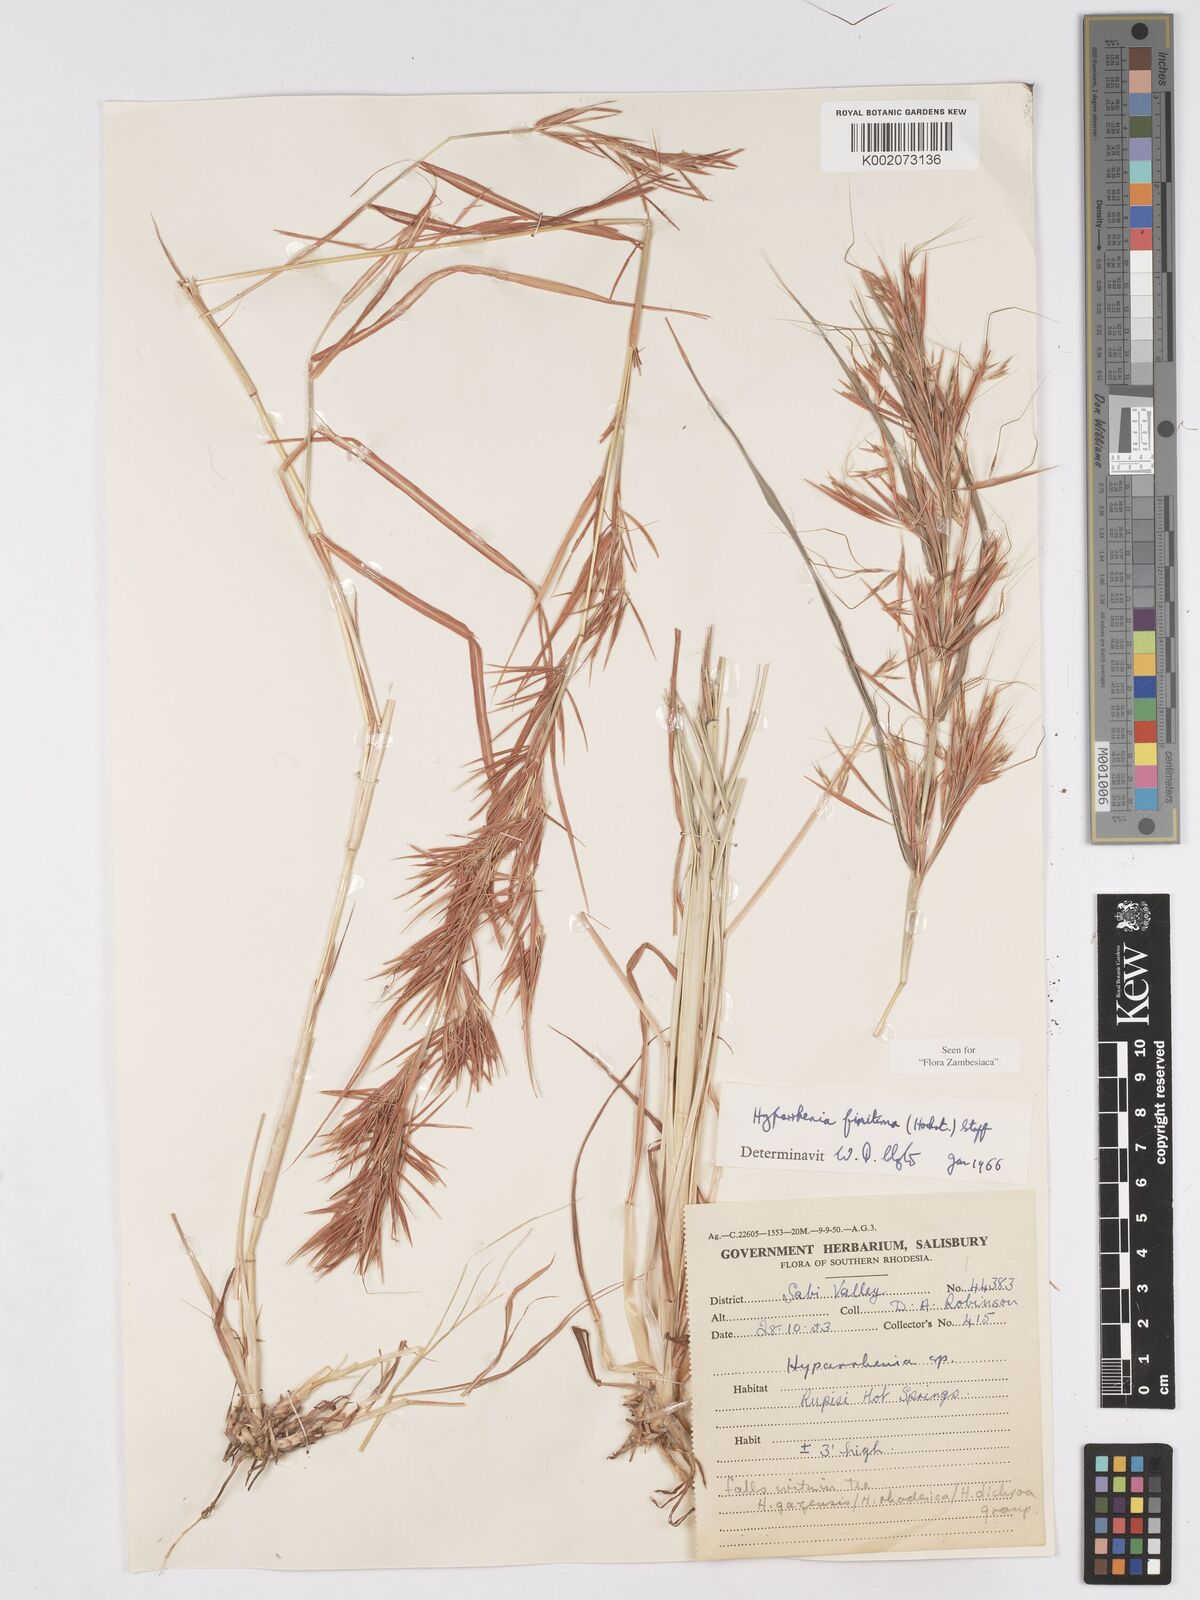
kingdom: Plantae
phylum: Tracheophyta
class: Liliopsida
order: Poales
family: Poaceae
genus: Hyparrhenia
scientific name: Hyparrhenia finitima
